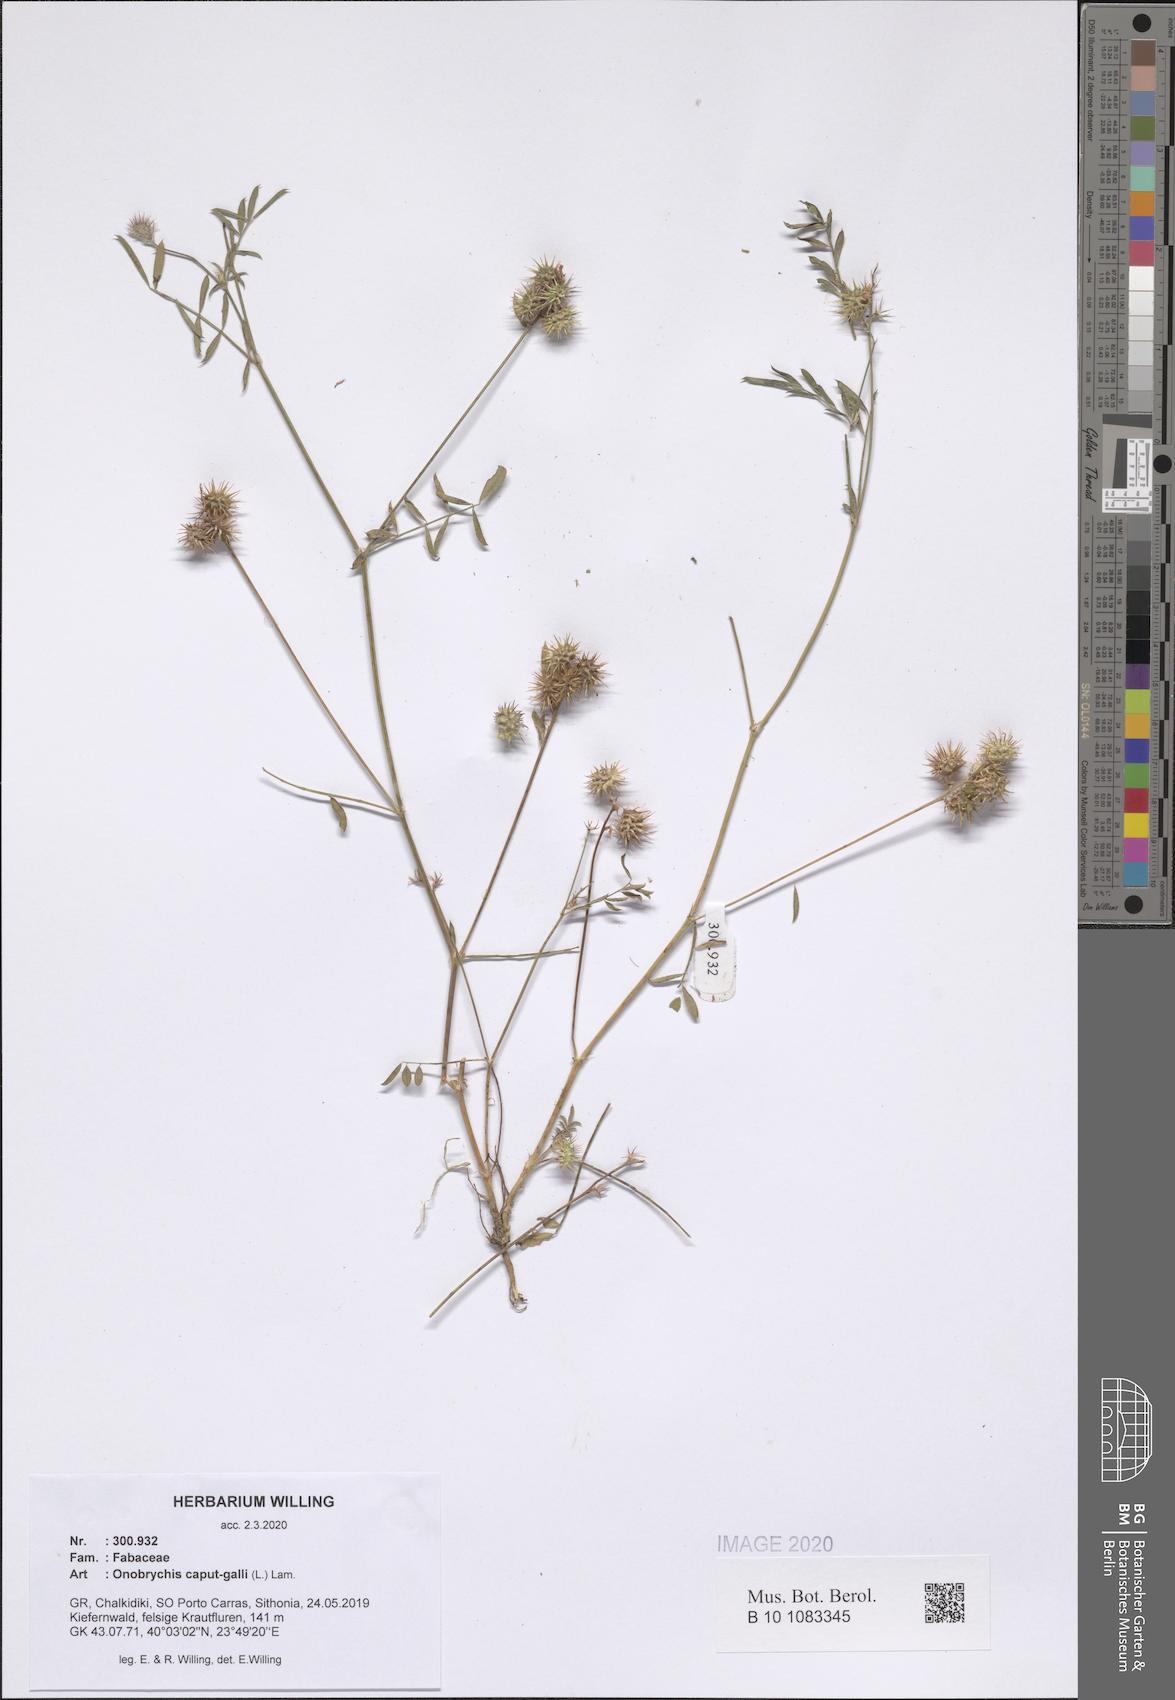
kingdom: Plantae
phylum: Tracheophyta
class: Magnoliopsida
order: Fabales
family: Fabaceae
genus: Onobrychis
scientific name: Onobrychis caput-galli
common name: Cockscomb sainfoin
